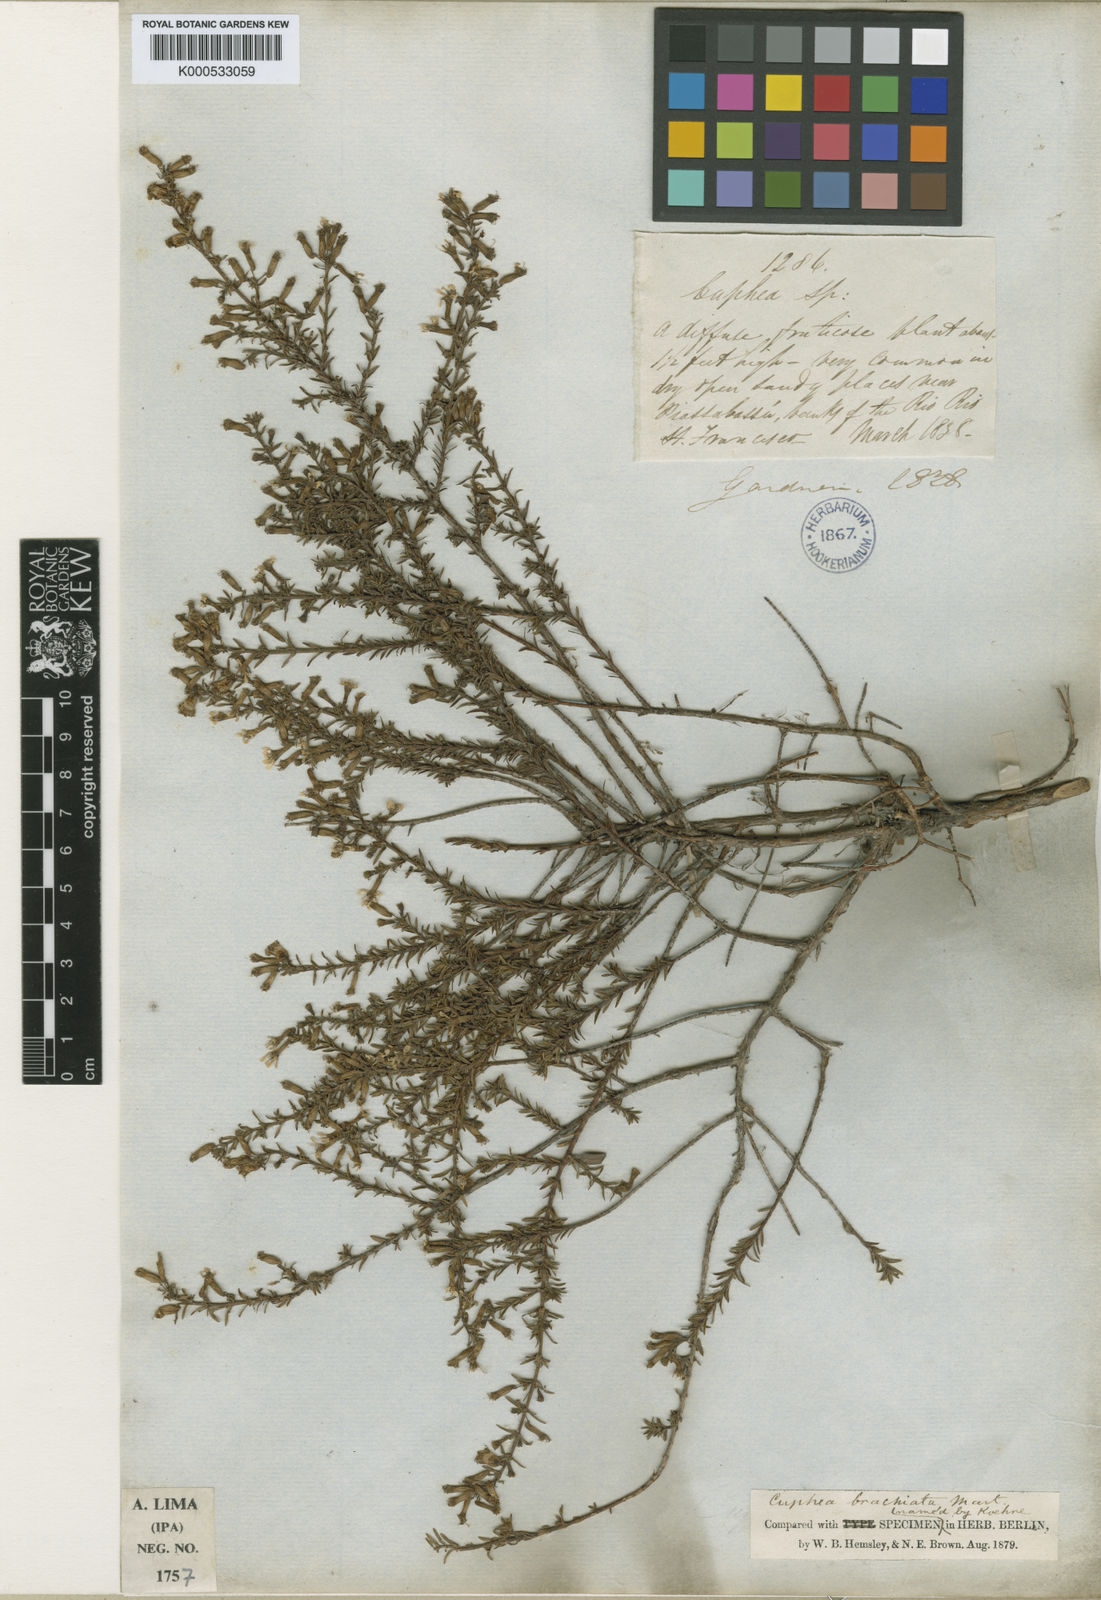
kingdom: Plantae
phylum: Tracheophyta
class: Magnoliopsida
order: Myrtales
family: Lythraceae
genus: Cuphea
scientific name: Cuphea brachiata
